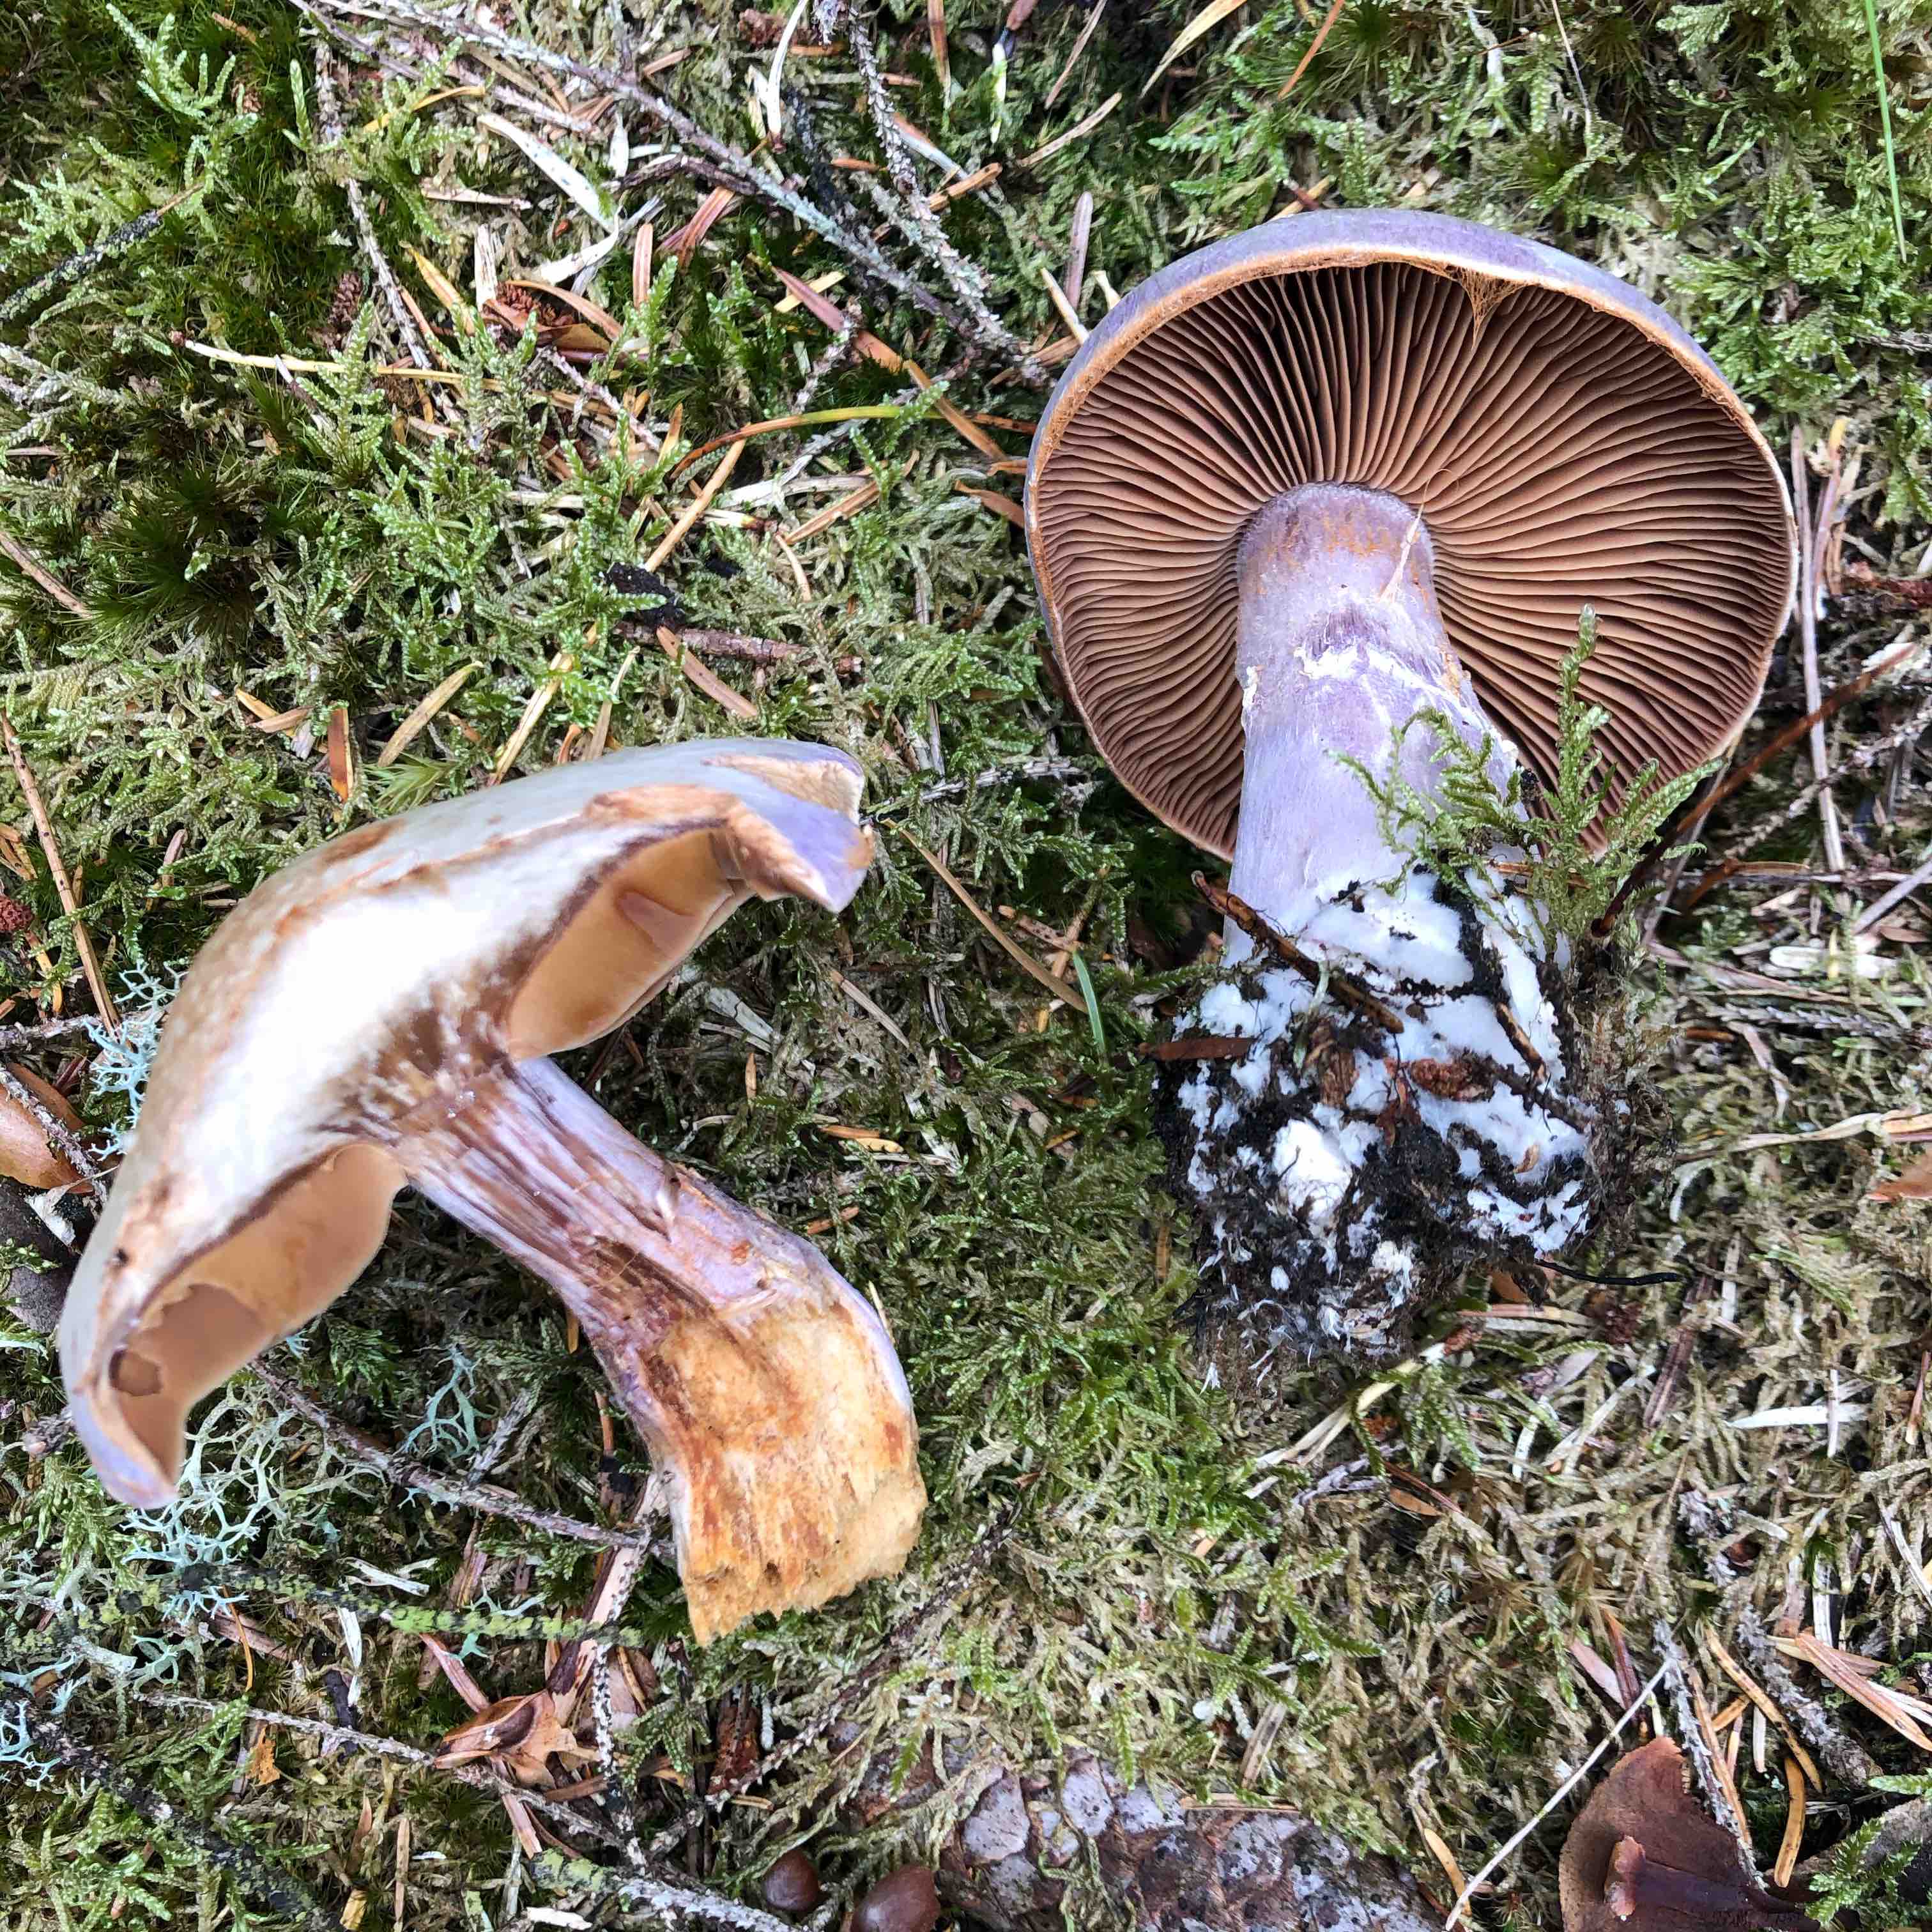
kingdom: Fungi
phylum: Basidiomycota
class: Agaricomycetes
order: Agaricales
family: Cortinariaceae
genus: Cortinarius
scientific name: Cortinarius traganus
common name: safrankødet slørhat
